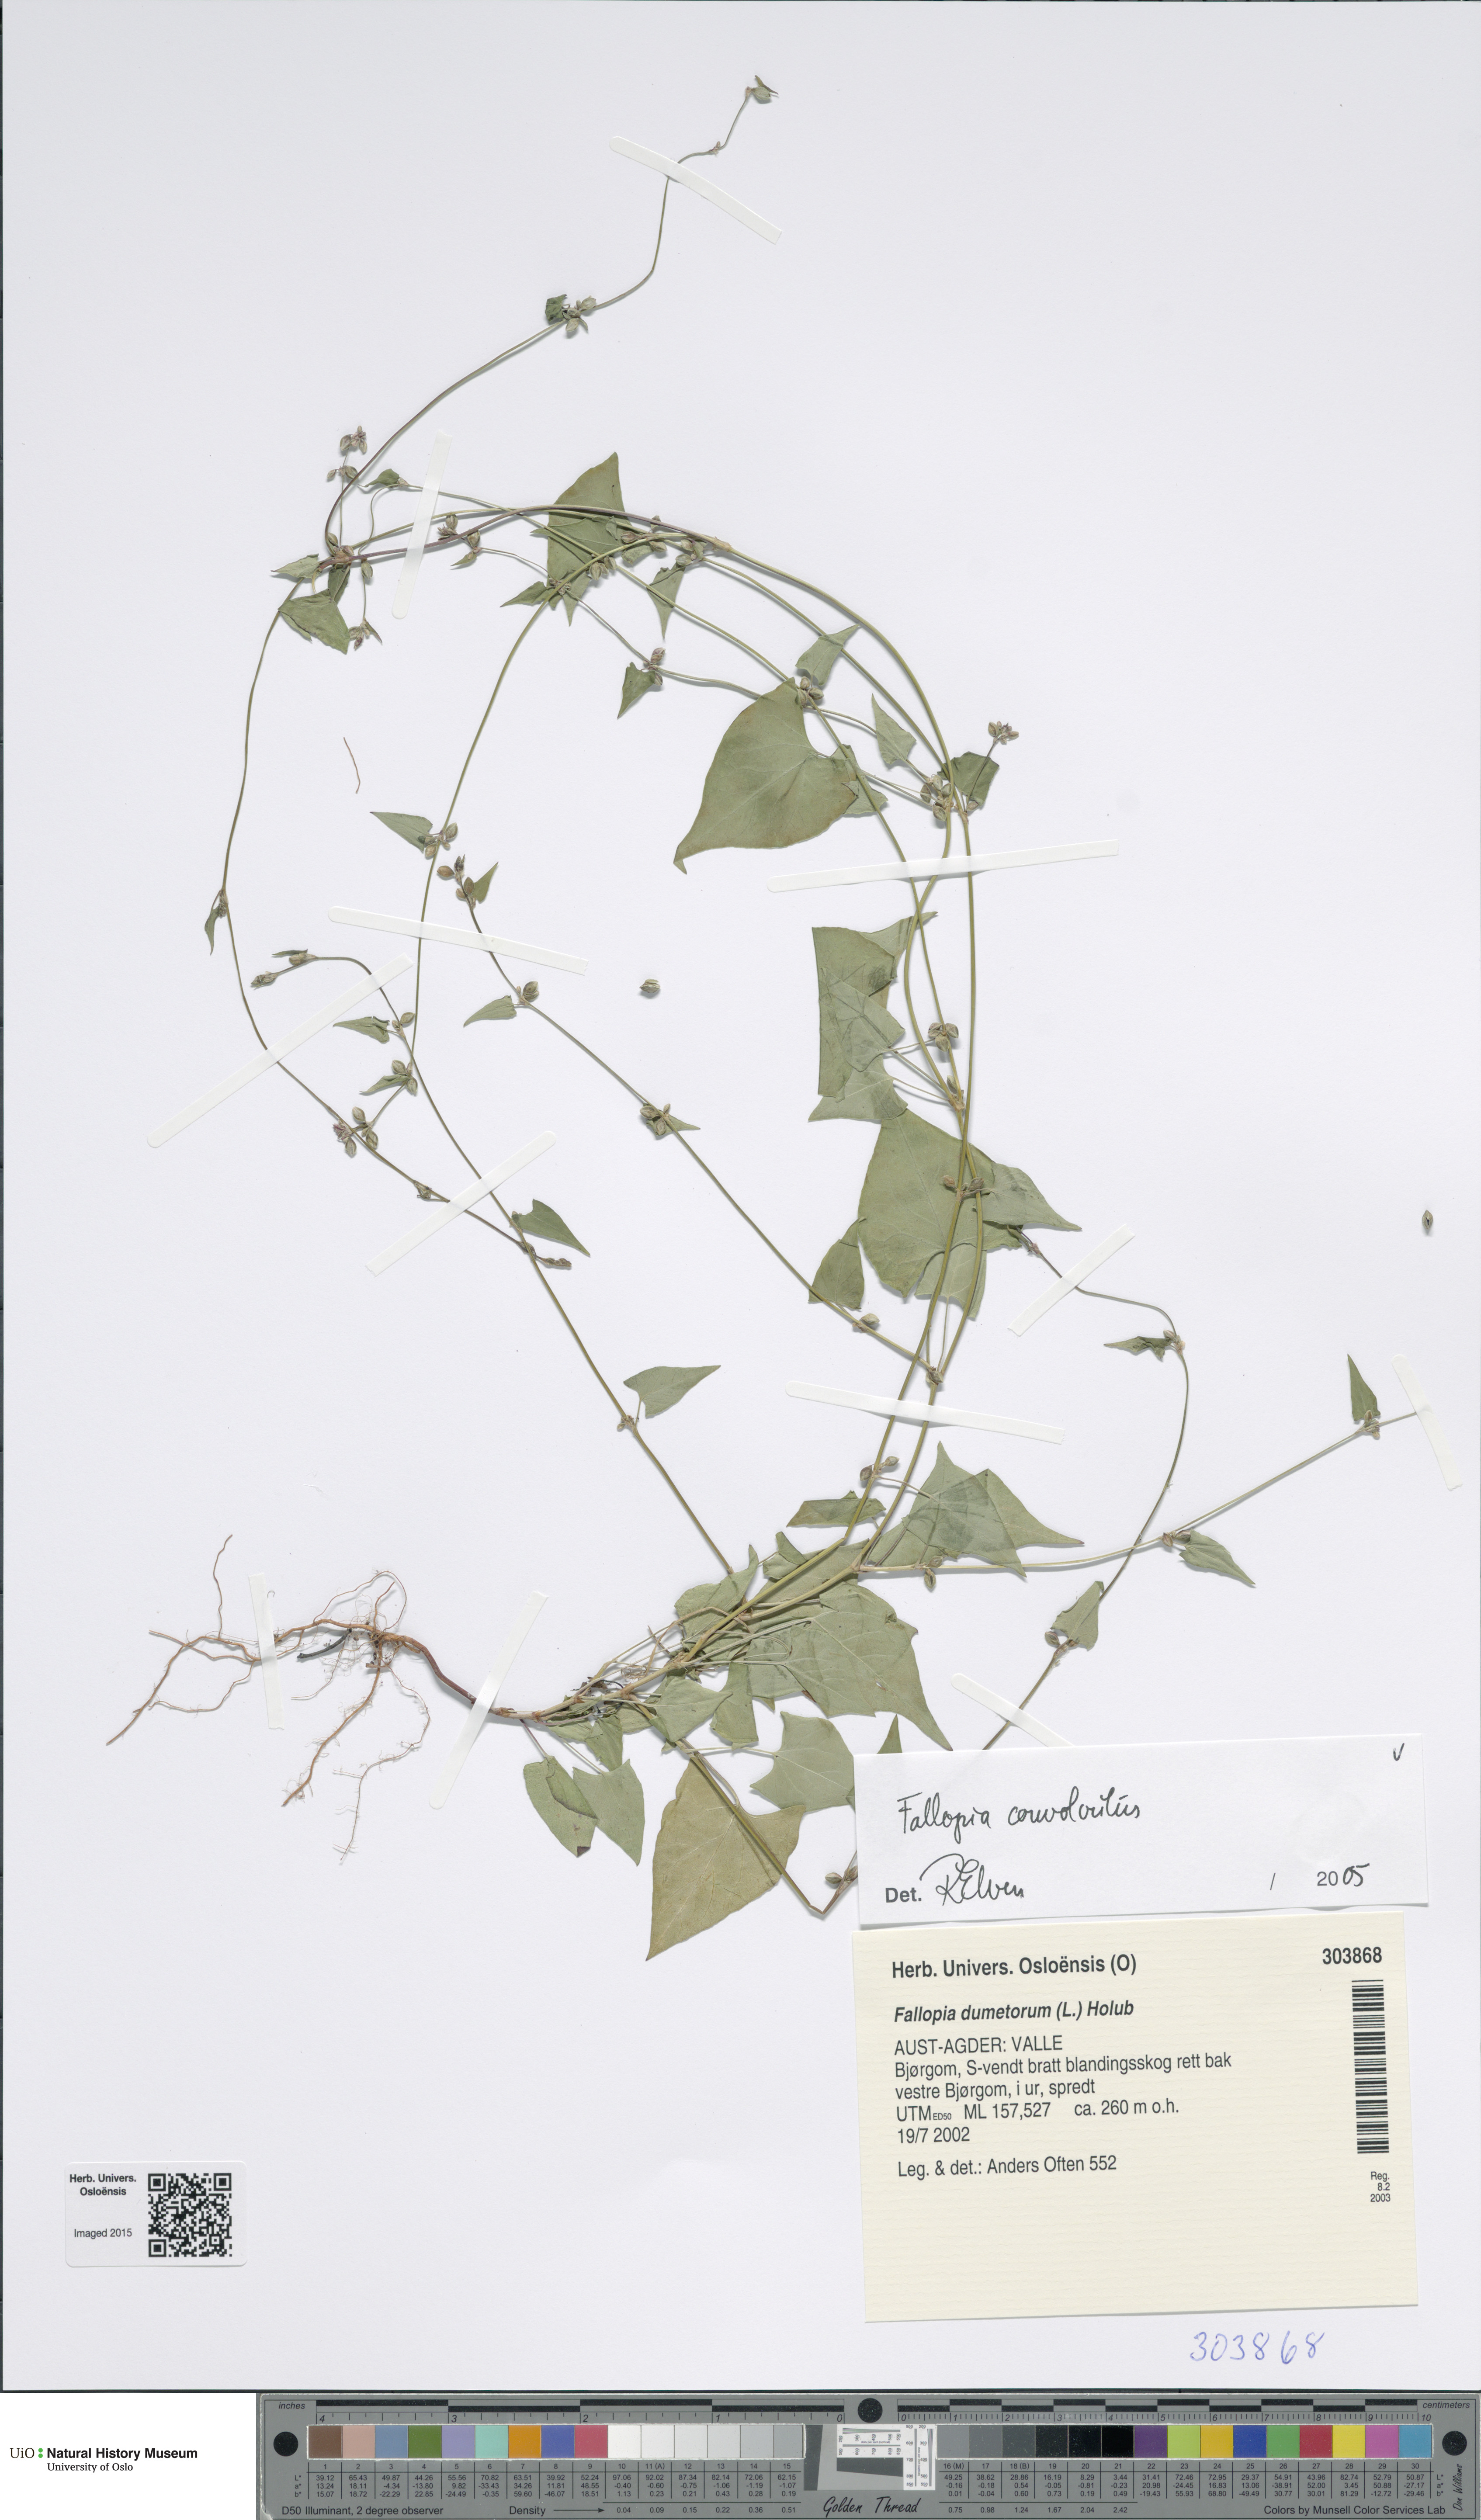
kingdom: Plantae
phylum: Tracheophyta
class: Magnoliopsida
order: Caryophyllales
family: Polygonaceae
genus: Fallopia
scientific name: Fallopia convolvulus
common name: Black bindweed
